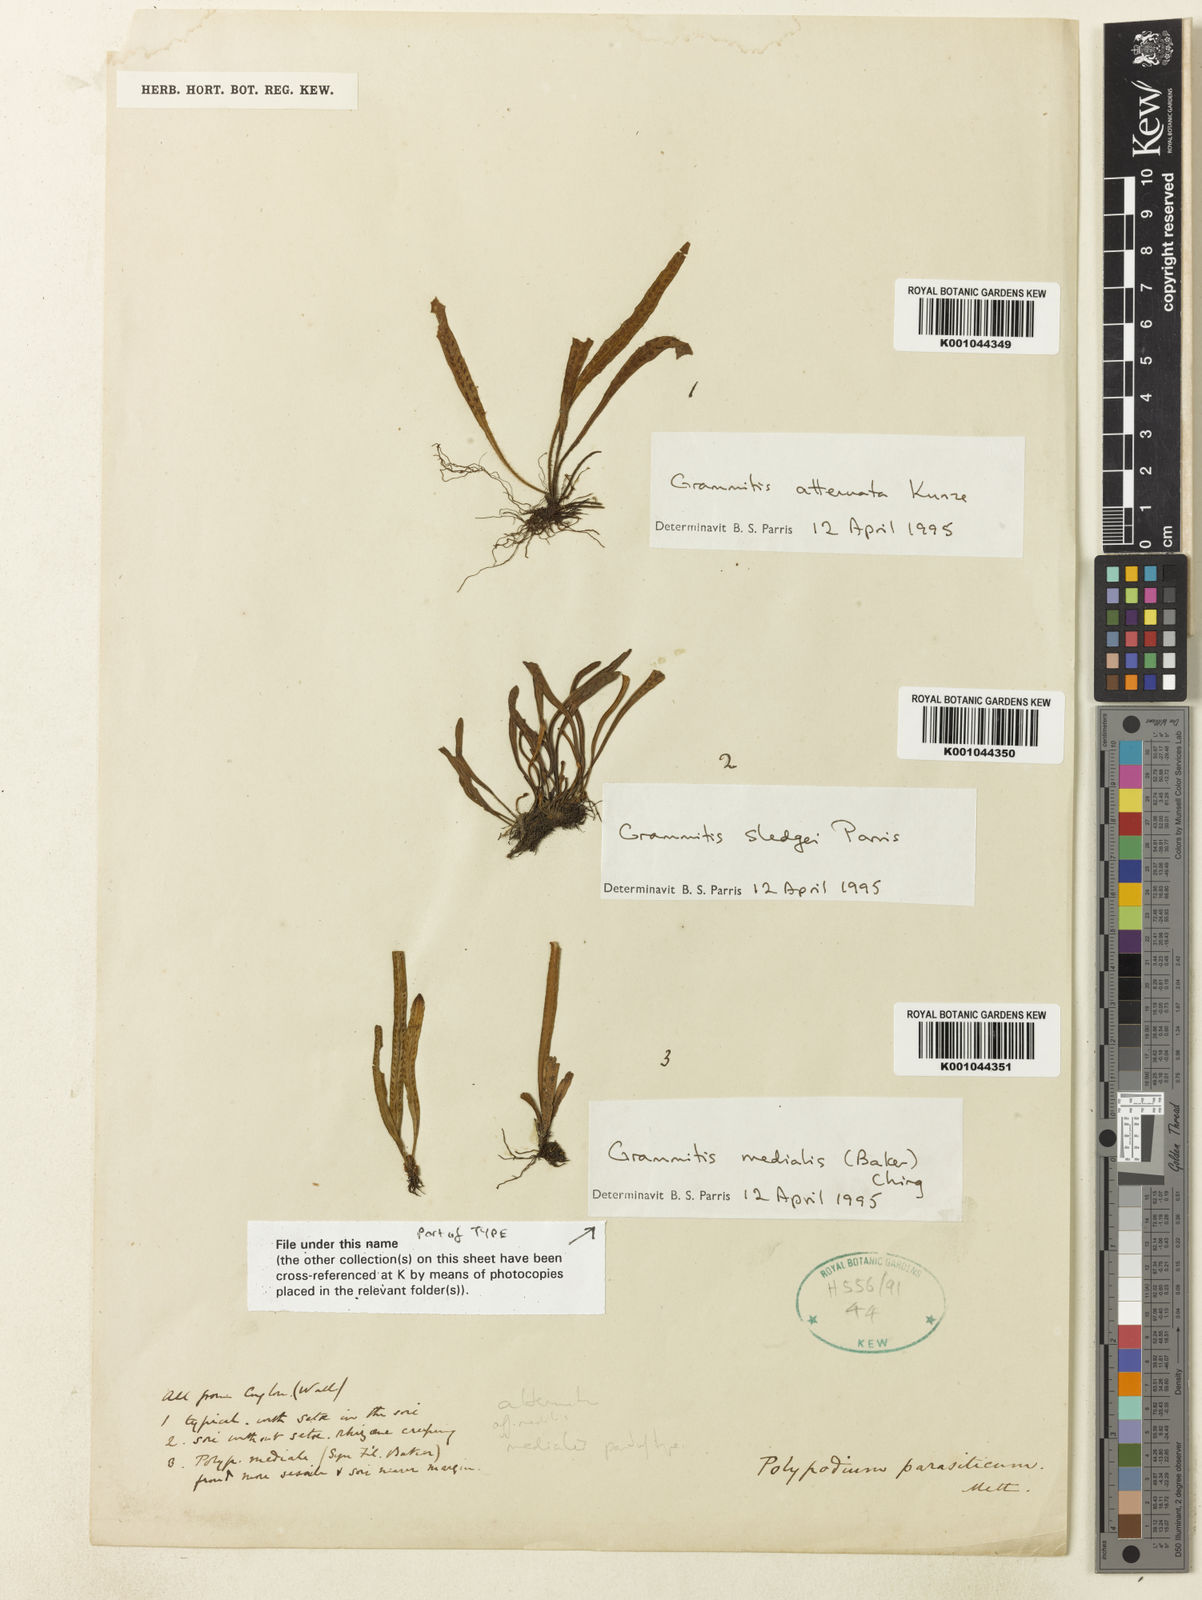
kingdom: Plantae
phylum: Tracheophyta
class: Polypodiopsida
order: Polypodiales
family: Polypodiaceae
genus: Oreogrammitis
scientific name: Oreogrammitis medialis
